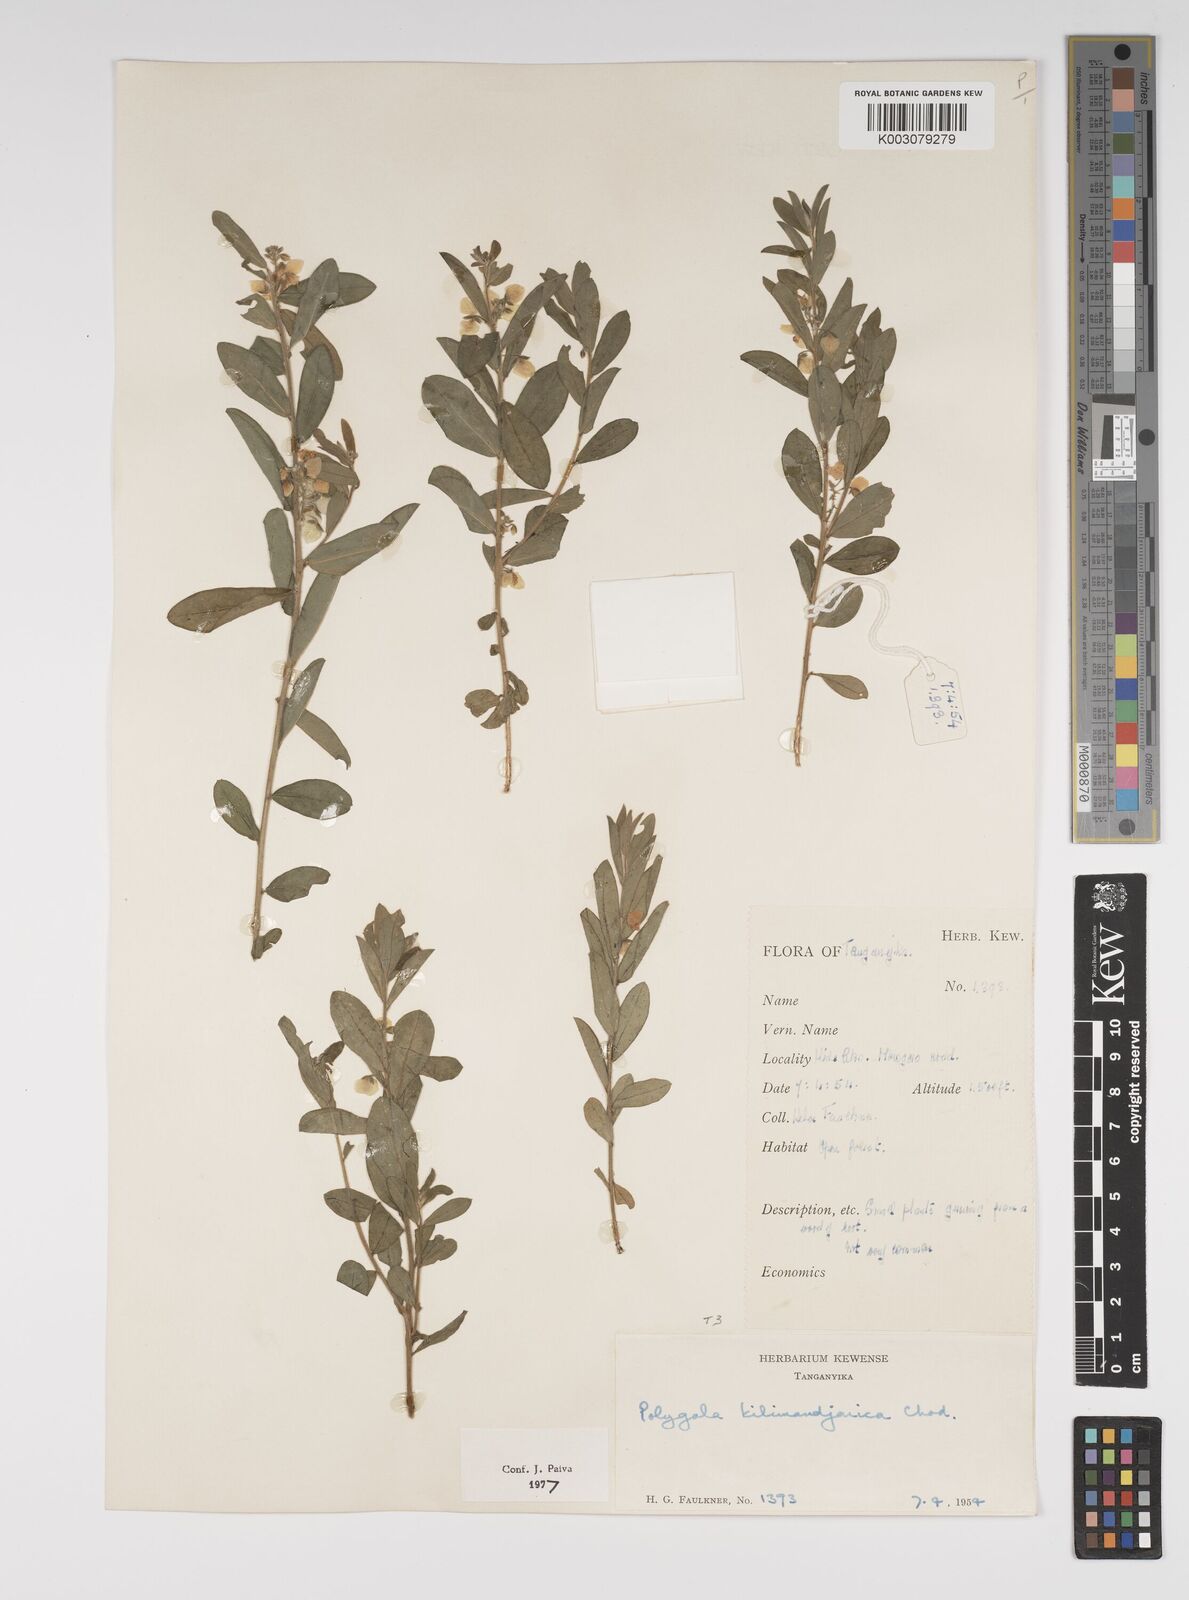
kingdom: Plantae
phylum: Tracheophyta
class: Magnoliopsida
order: Fabales
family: Polygalaceae
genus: Polygala
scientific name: Polygala kilimandjarica
